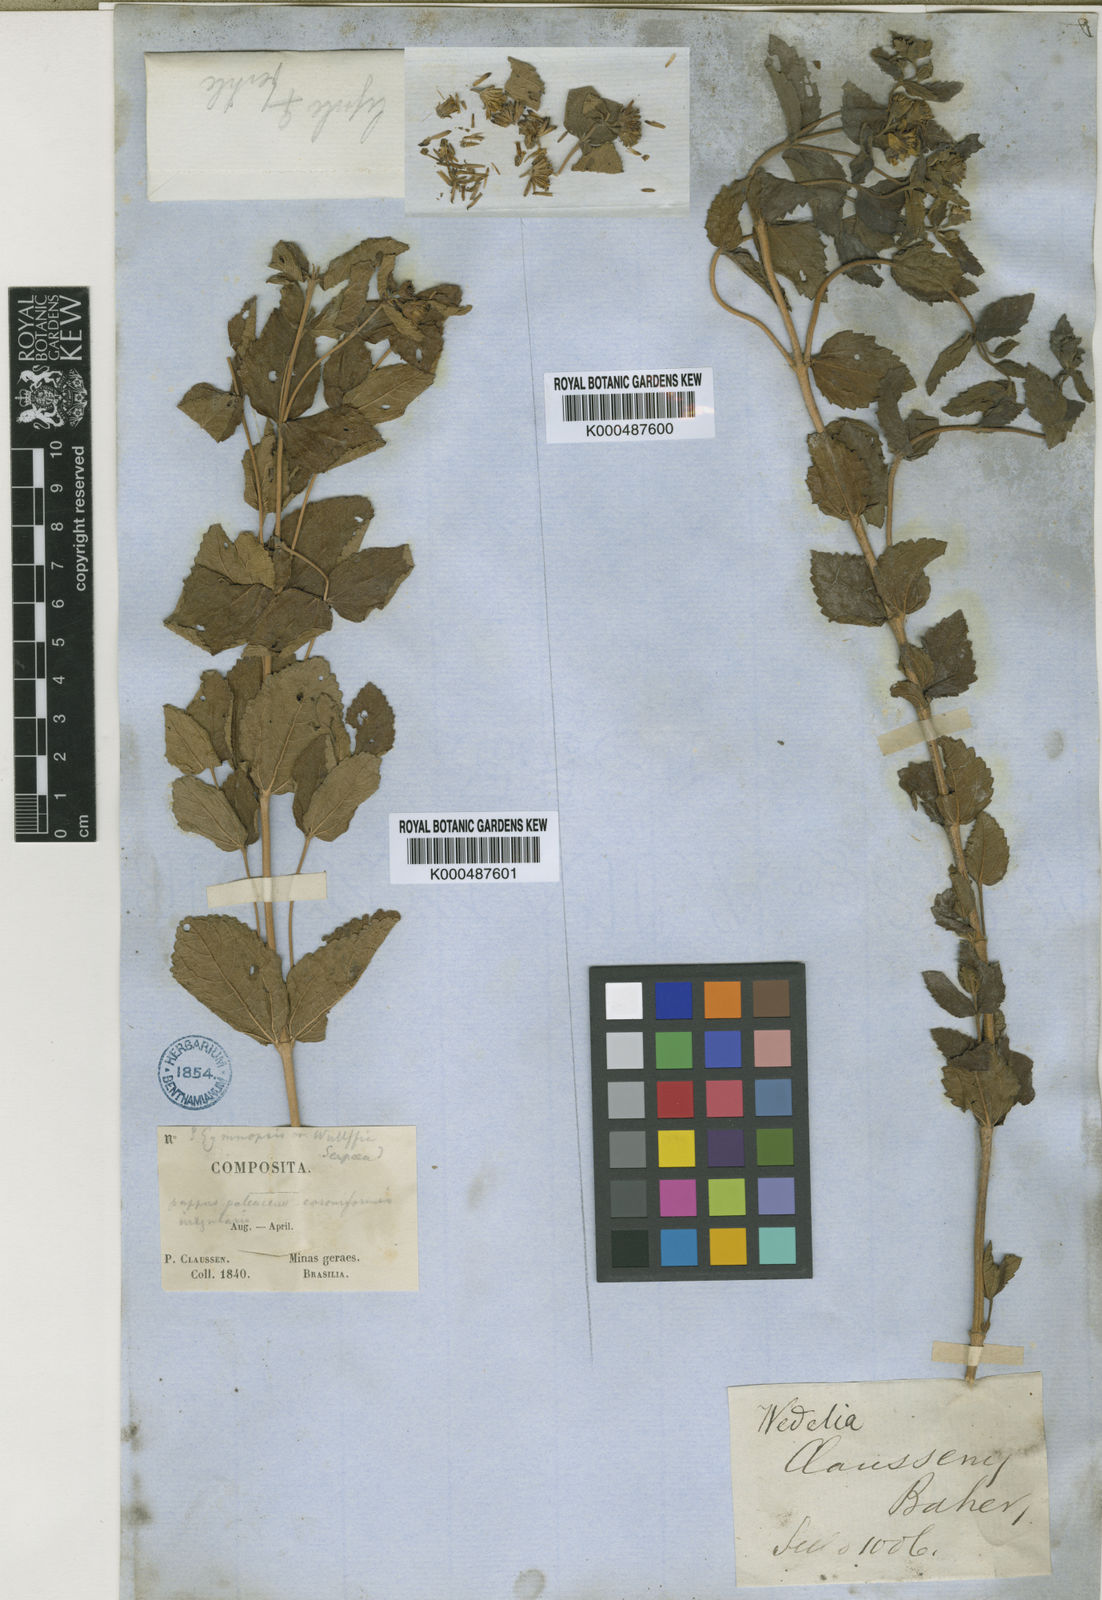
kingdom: Plantae
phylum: Tracheophyta
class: Magnoliopsida
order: Asterales
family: Asteraceae
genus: Wedelia
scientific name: Wedelia puberula
